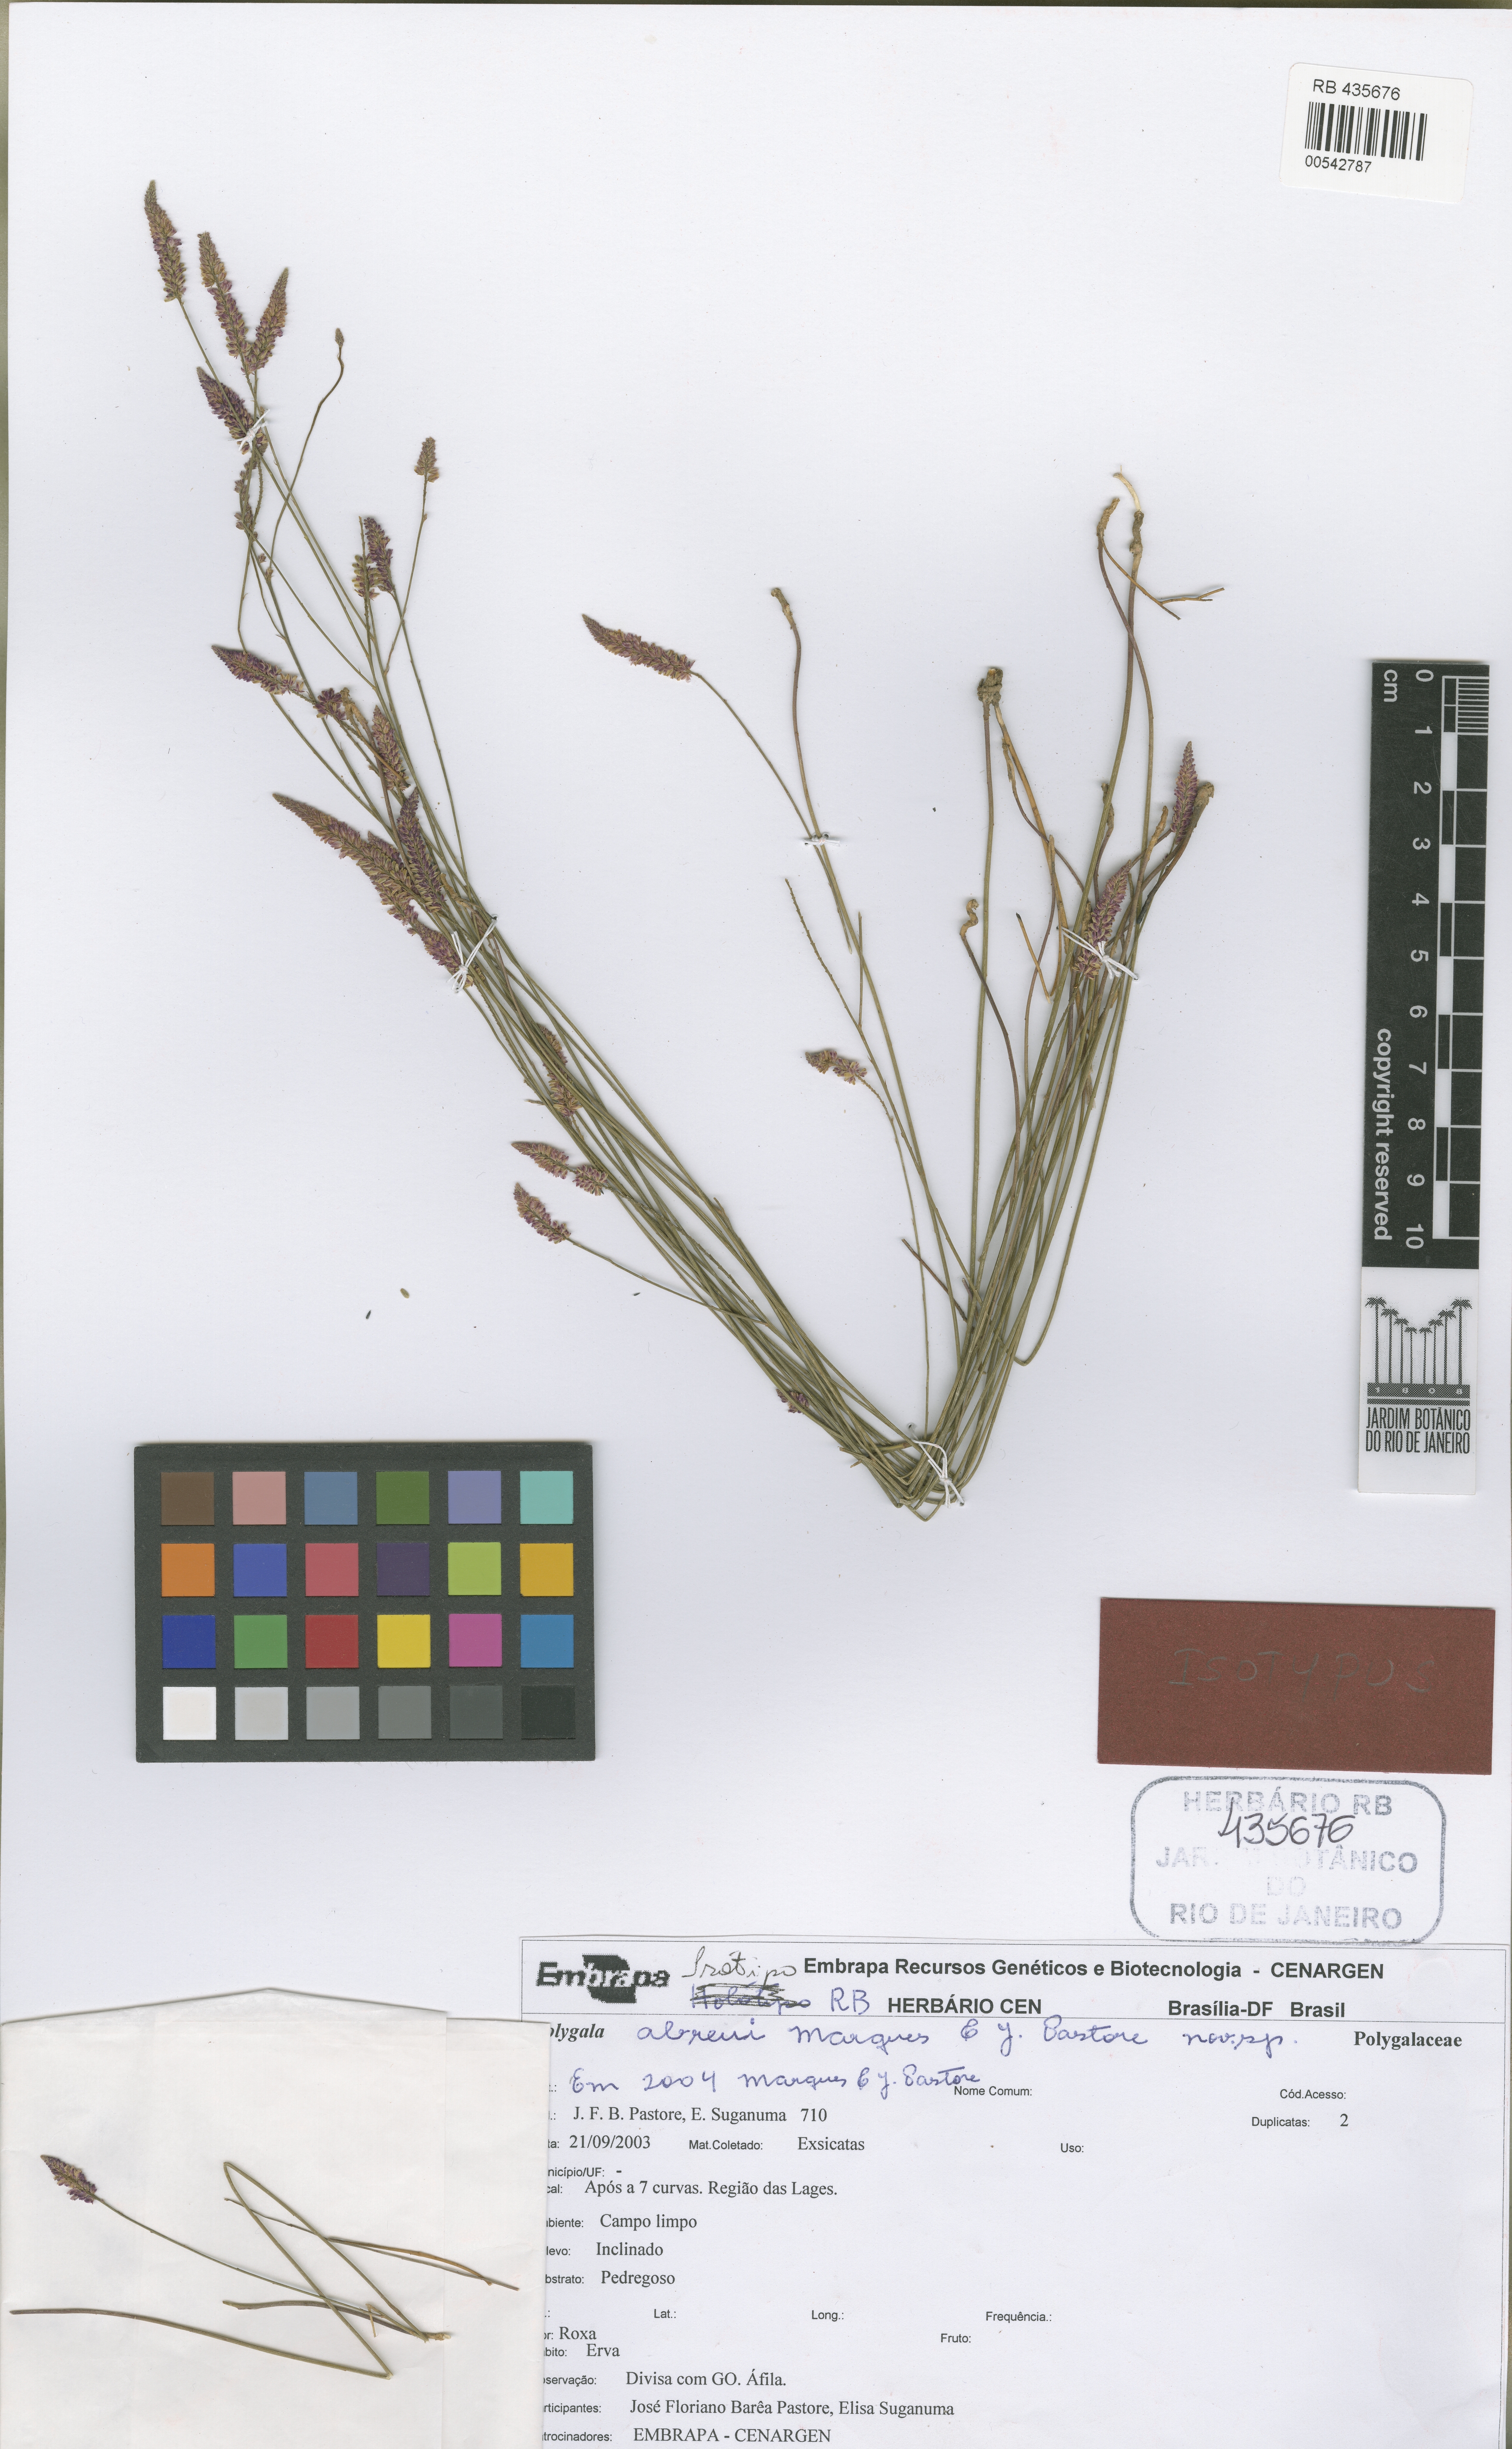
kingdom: Plantae
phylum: Tracheophyta
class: Magnoliopsida
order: Fabales
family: Polygalaceae
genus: Polygala
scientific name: Polygala abreui
